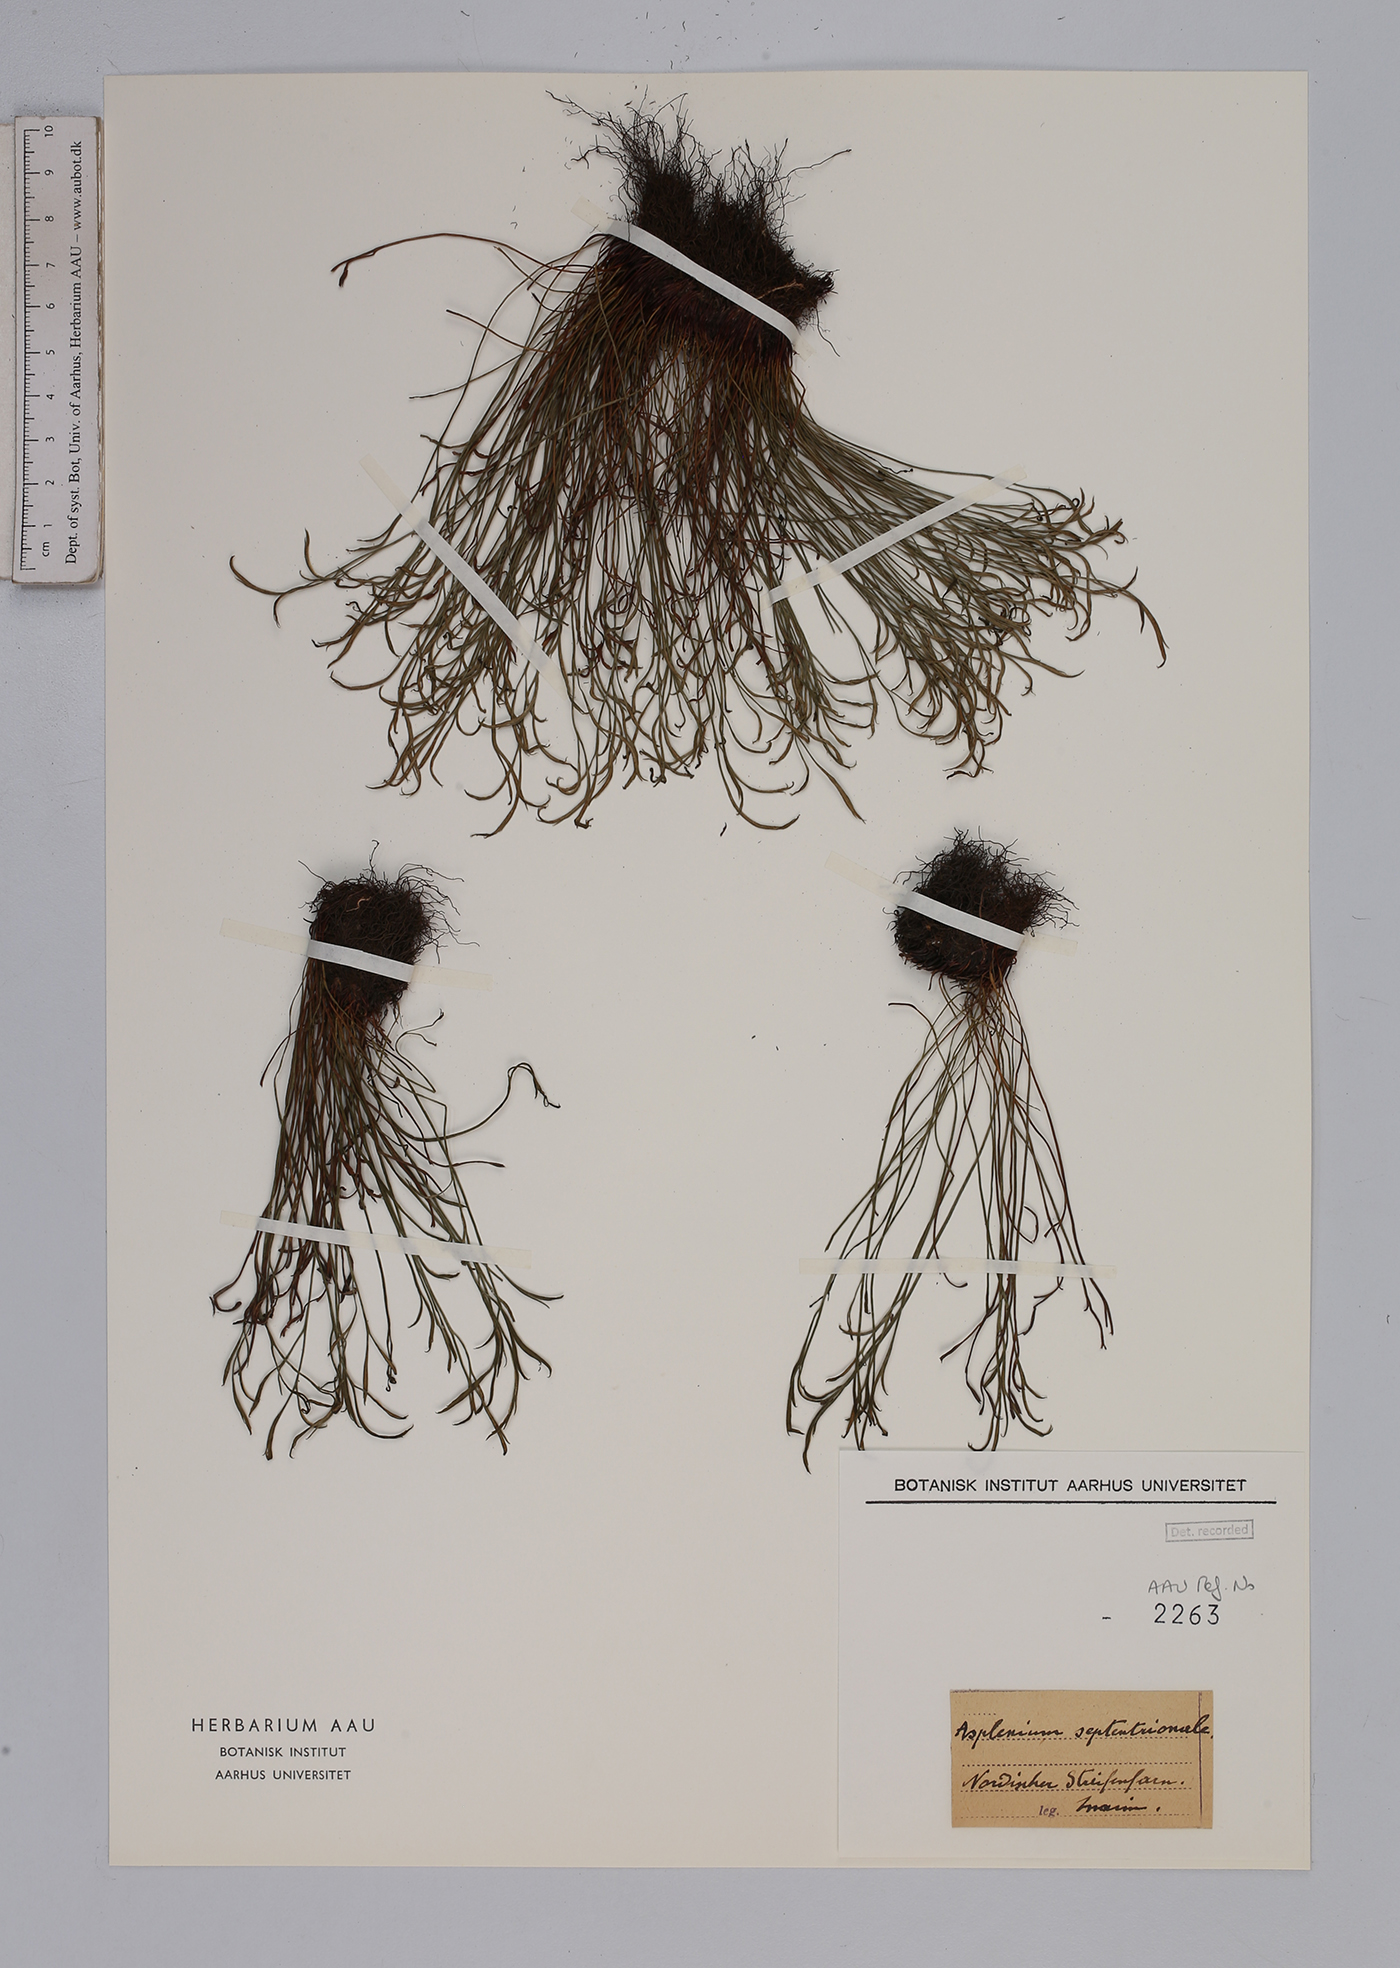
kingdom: Plantae
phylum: Tracheophyta
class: Polypodiopsida
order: Polypodiales
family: Aspleniaceae
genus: Asplenium
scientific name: Asplenium septentrionale
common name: Forked spleenwort
